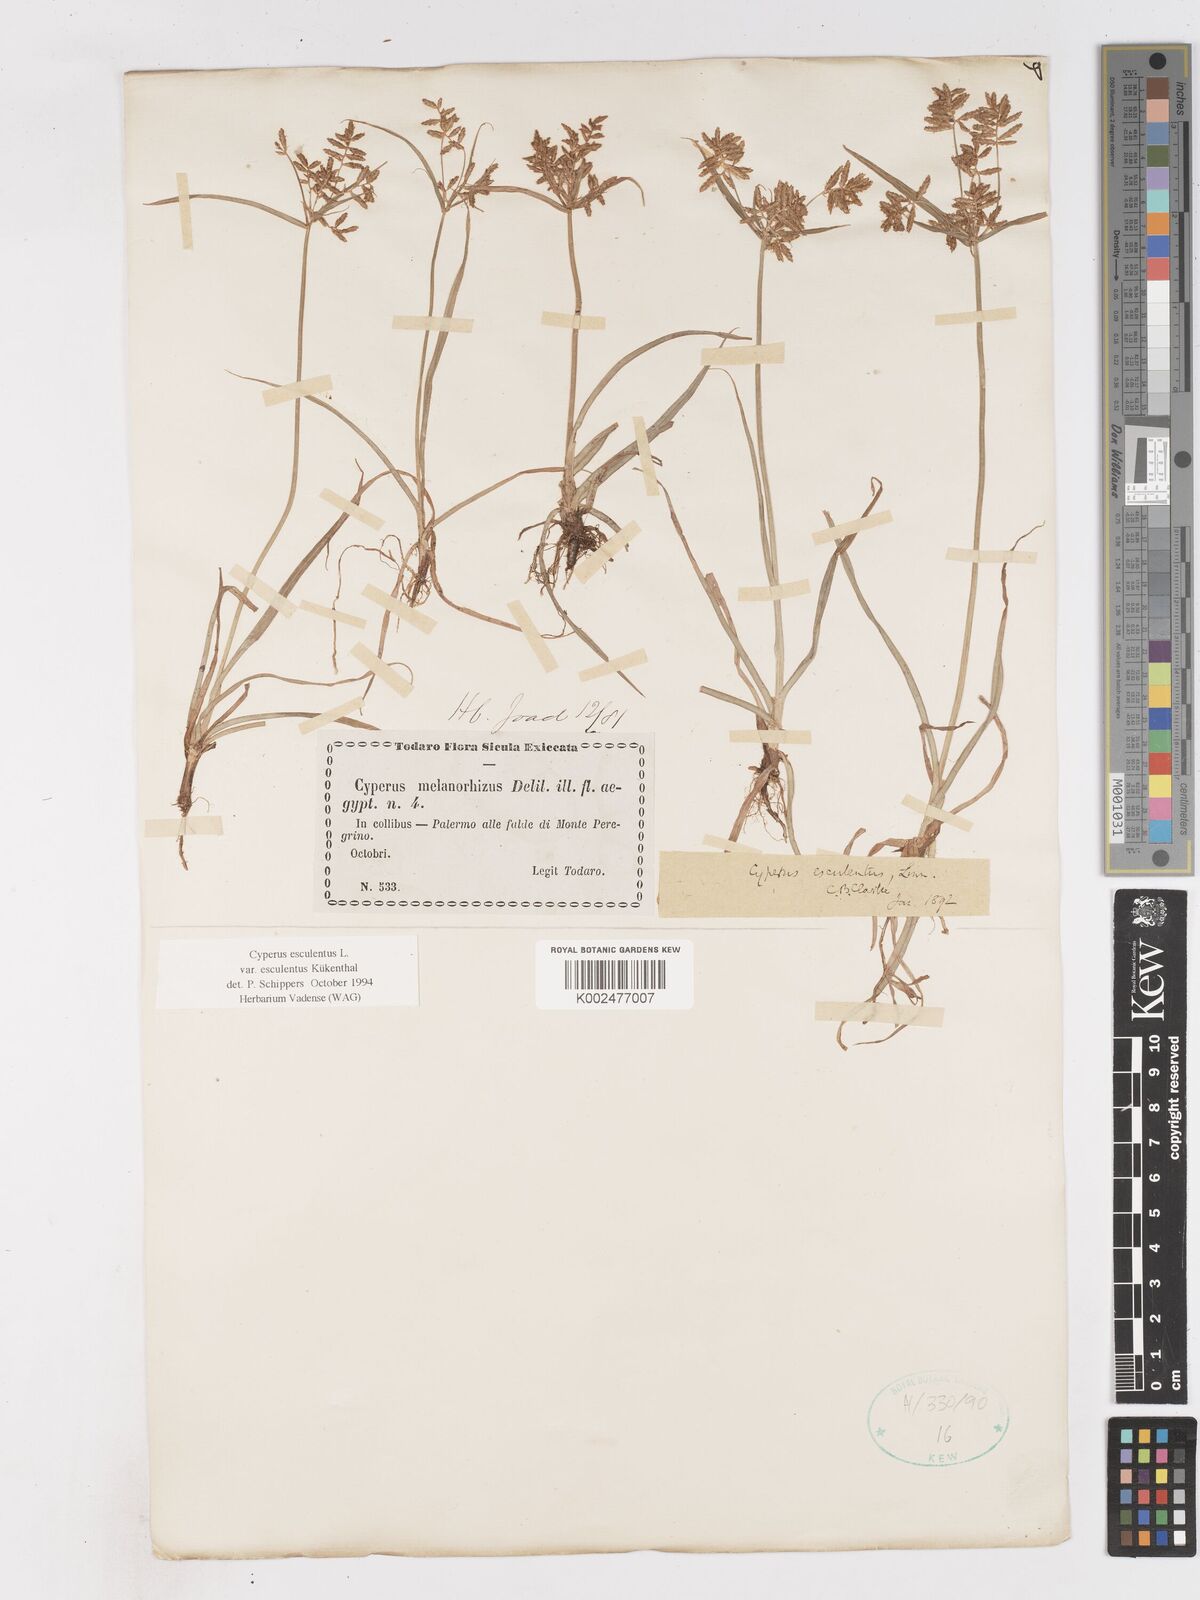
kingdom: Plantae
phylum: Tracheophyta
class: Liliopsida
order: Poales
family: Cyperaceae
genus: Cyperus
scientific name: Cyperus esculentus
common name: Yellow nutsedge
